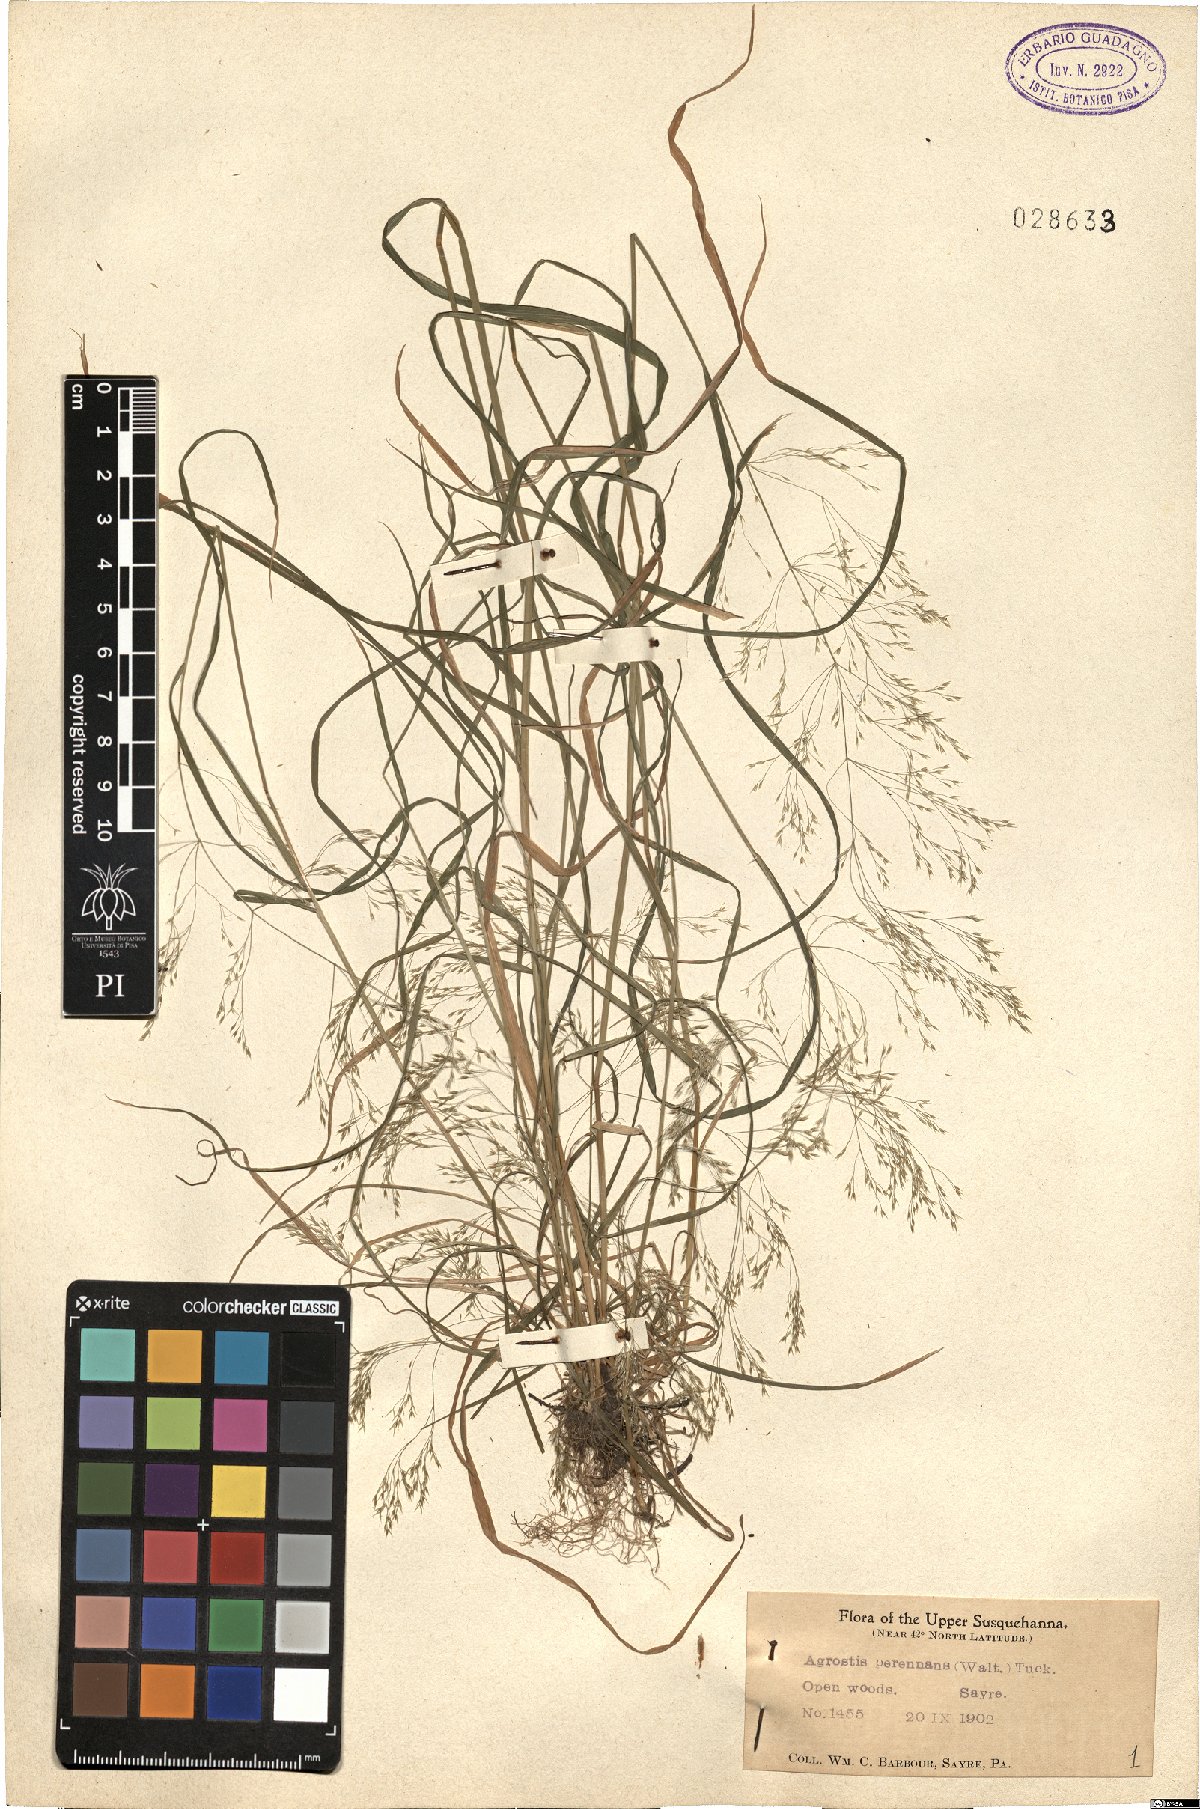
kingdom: Plantae
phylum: Tracheophyta
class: Liliopsida
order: Poales
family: Poaceae
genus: Agrostis
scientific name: Agrostis perennans
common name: Autumn bent
